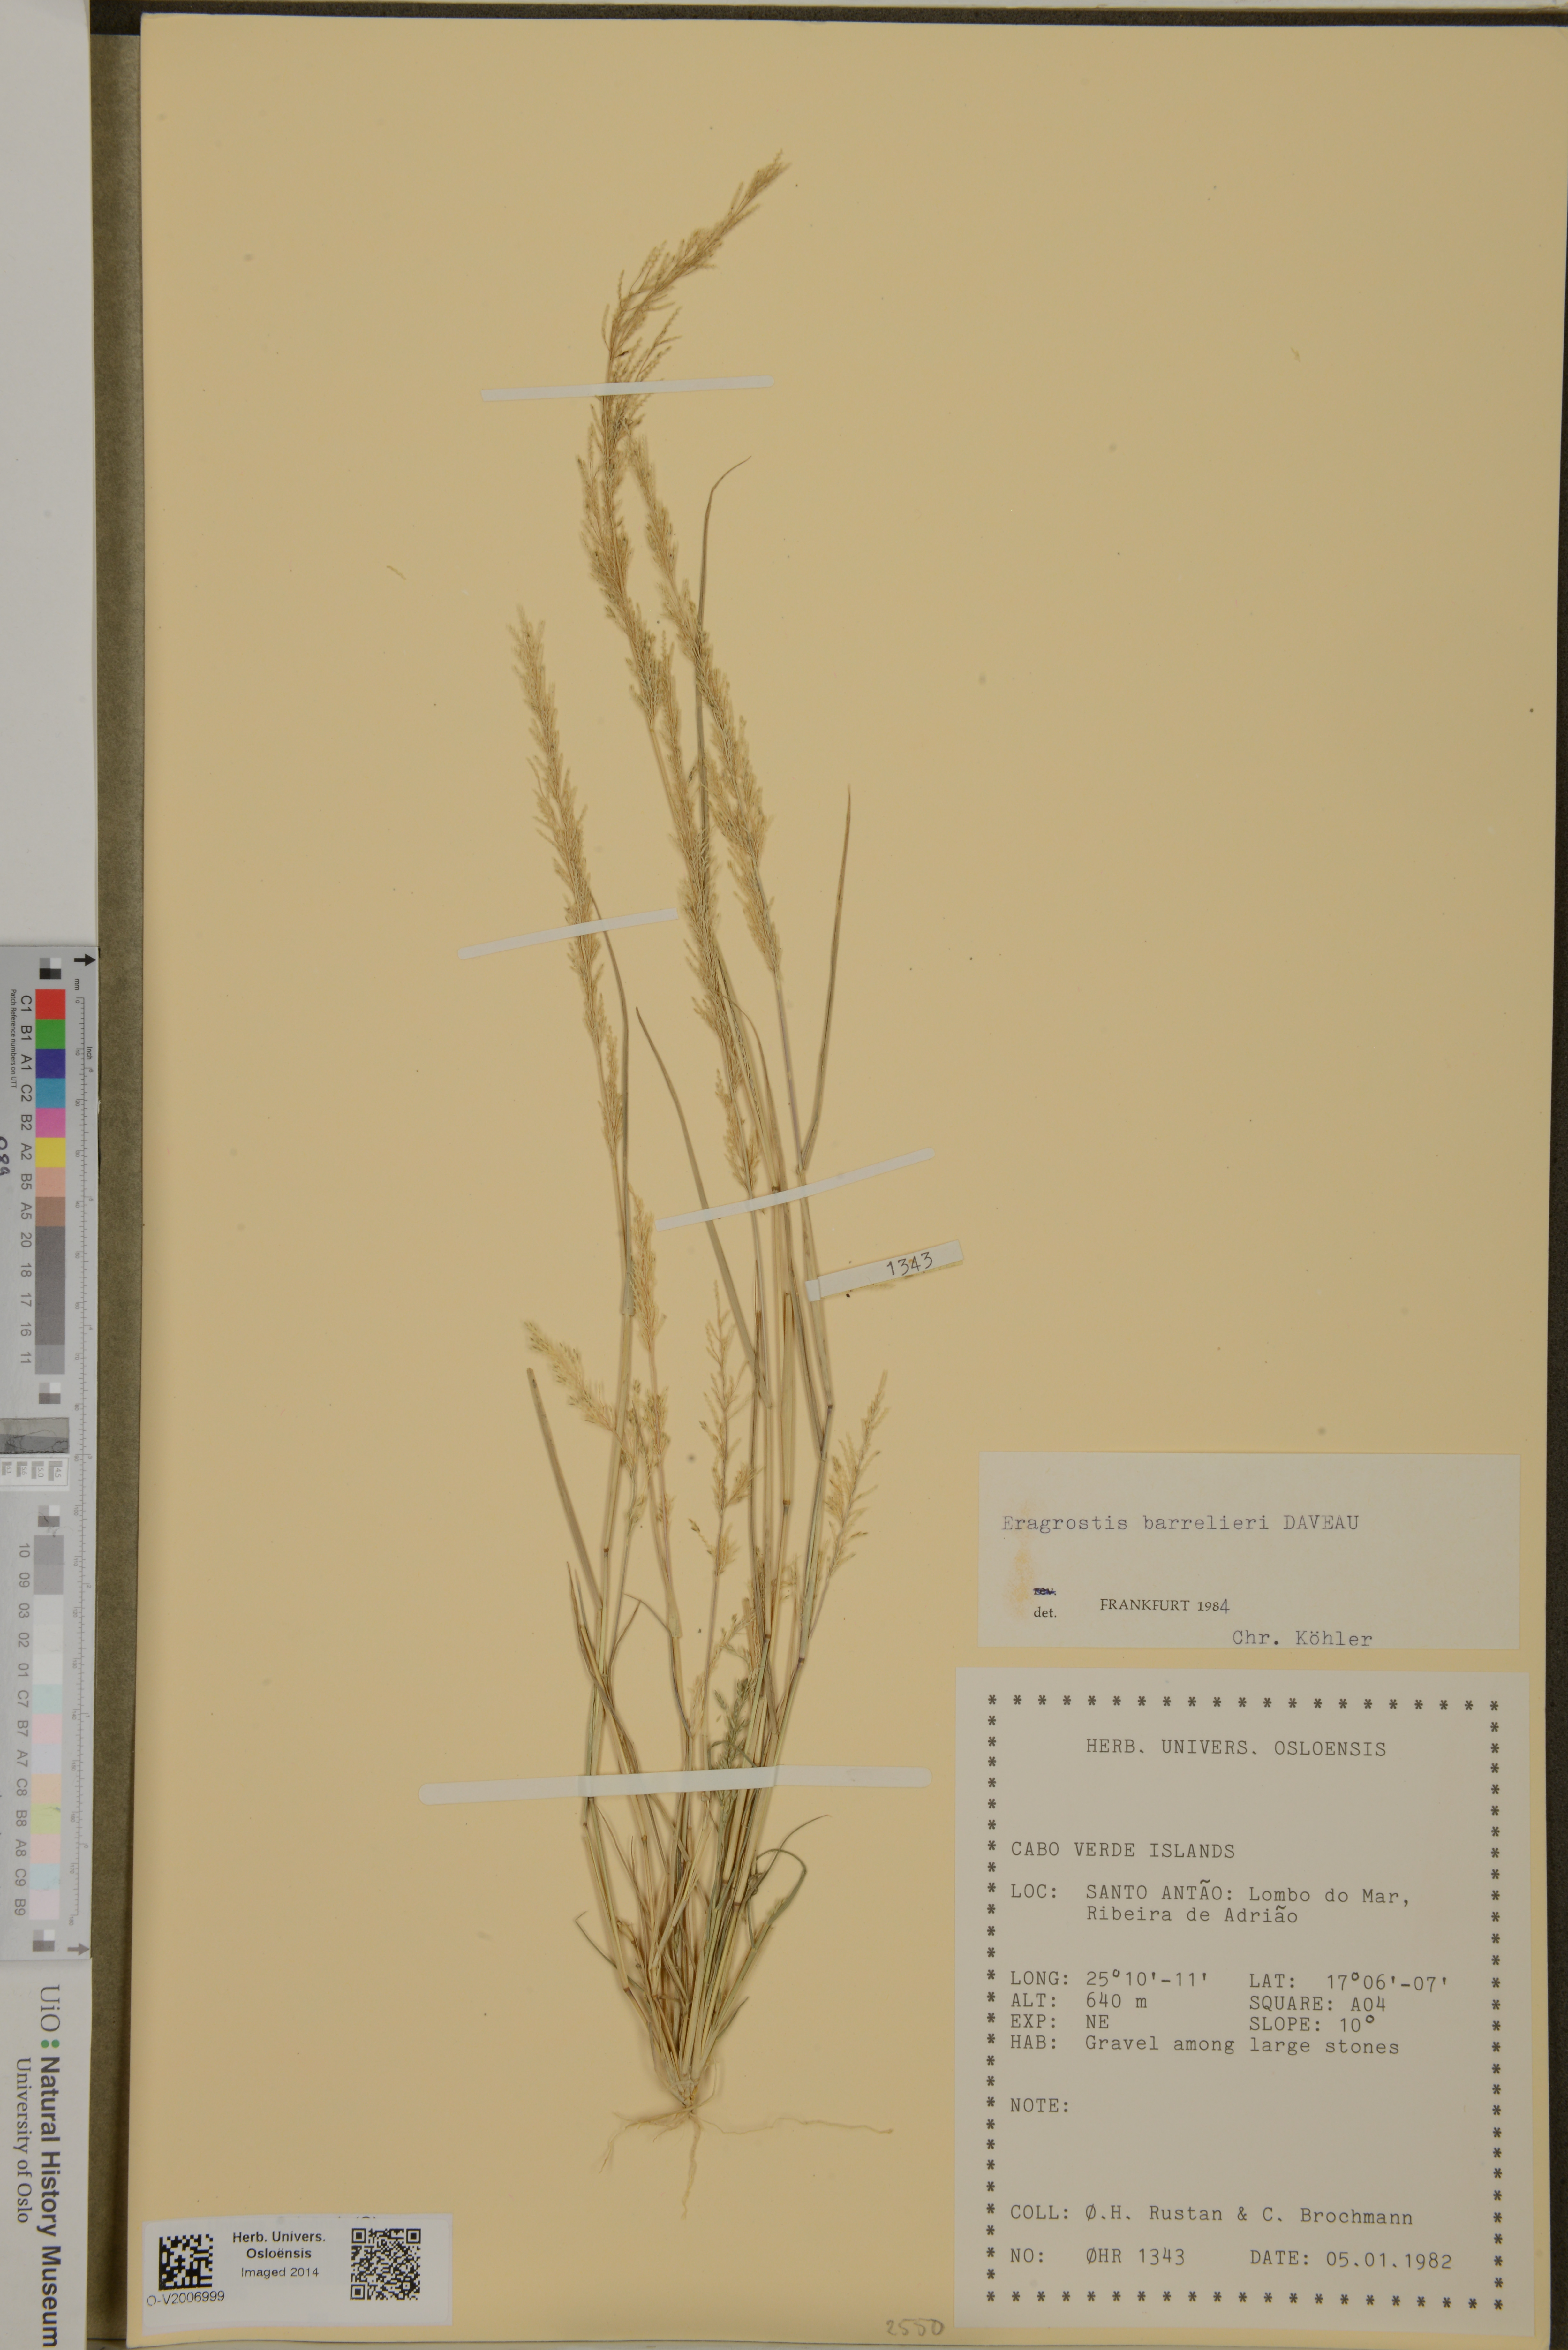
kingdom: Plantae
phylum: Tracheophyta
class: Liliopsida
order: Poales
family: Poaceae
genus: Eragrostis
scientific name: Eragrostis barrelieri
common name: Mediterranean lovegrass
